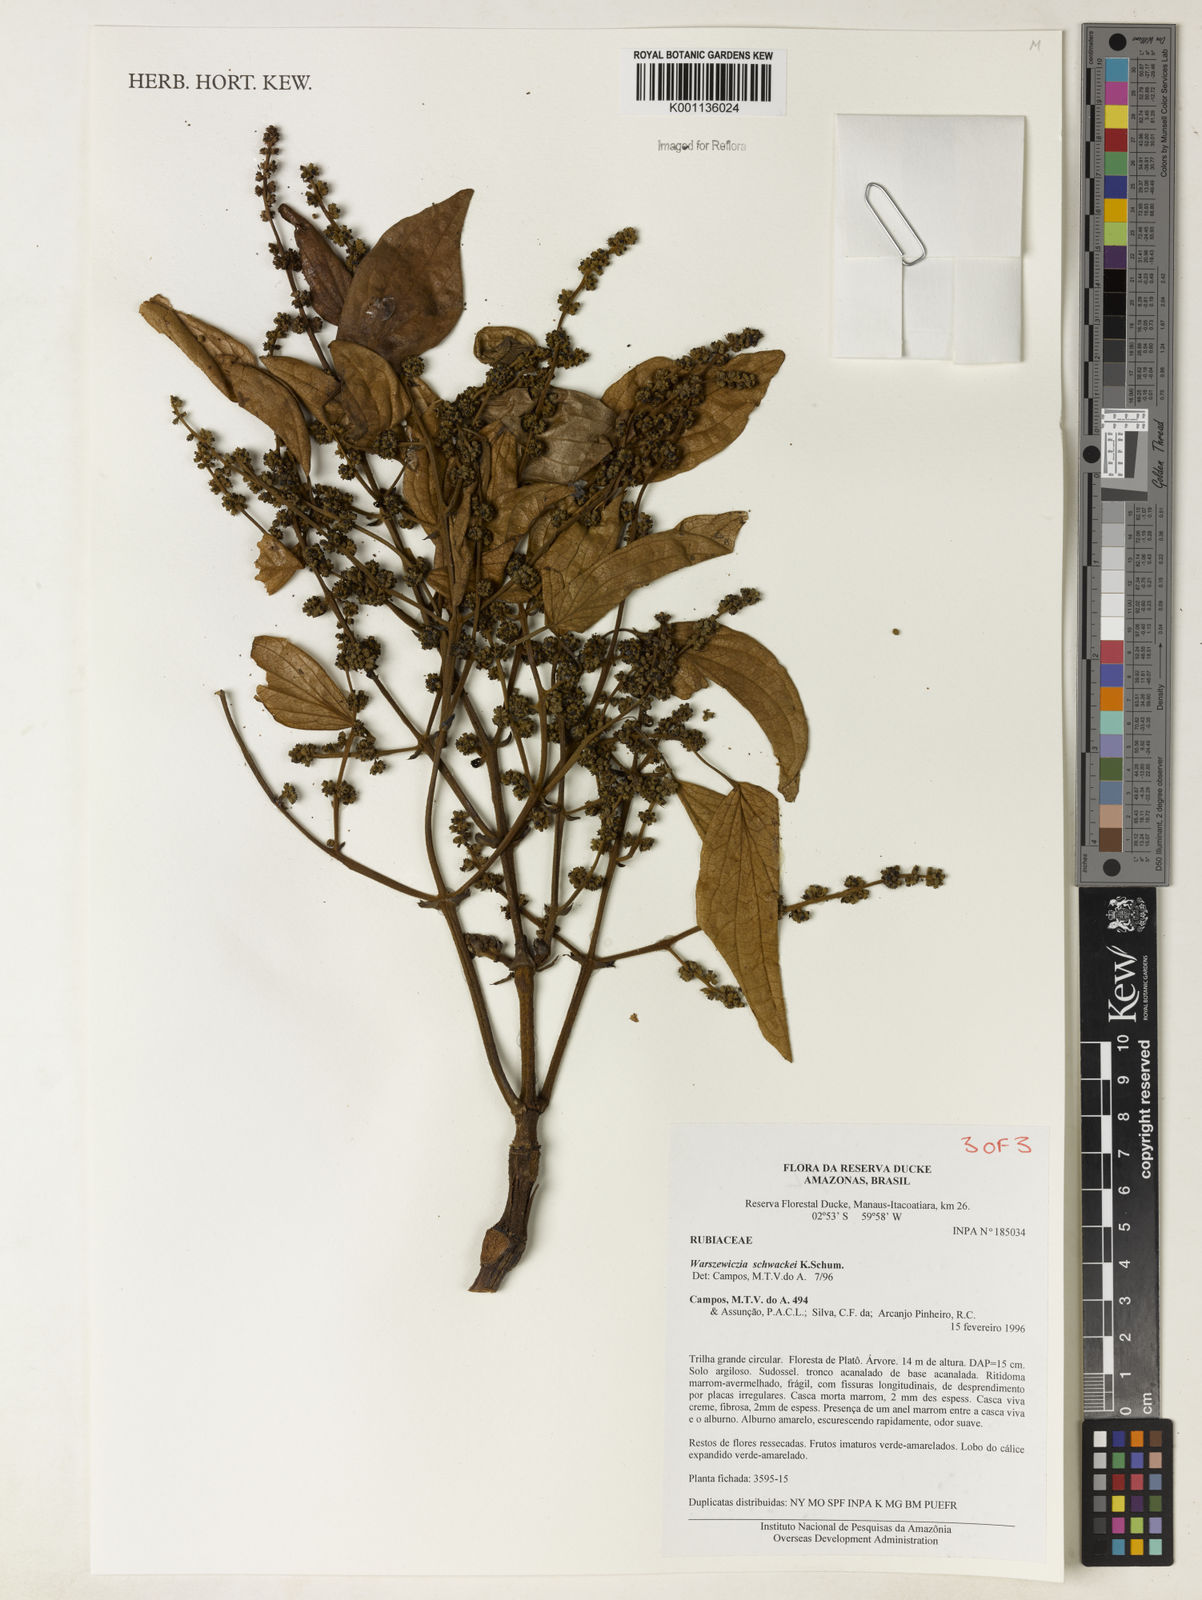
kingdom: Plantae
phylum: Tracheophyta
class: Magnoliopsida
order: Gentianales
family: Rubiaceae
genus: Warszewiczia
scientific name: Warszewiczia schwackei
